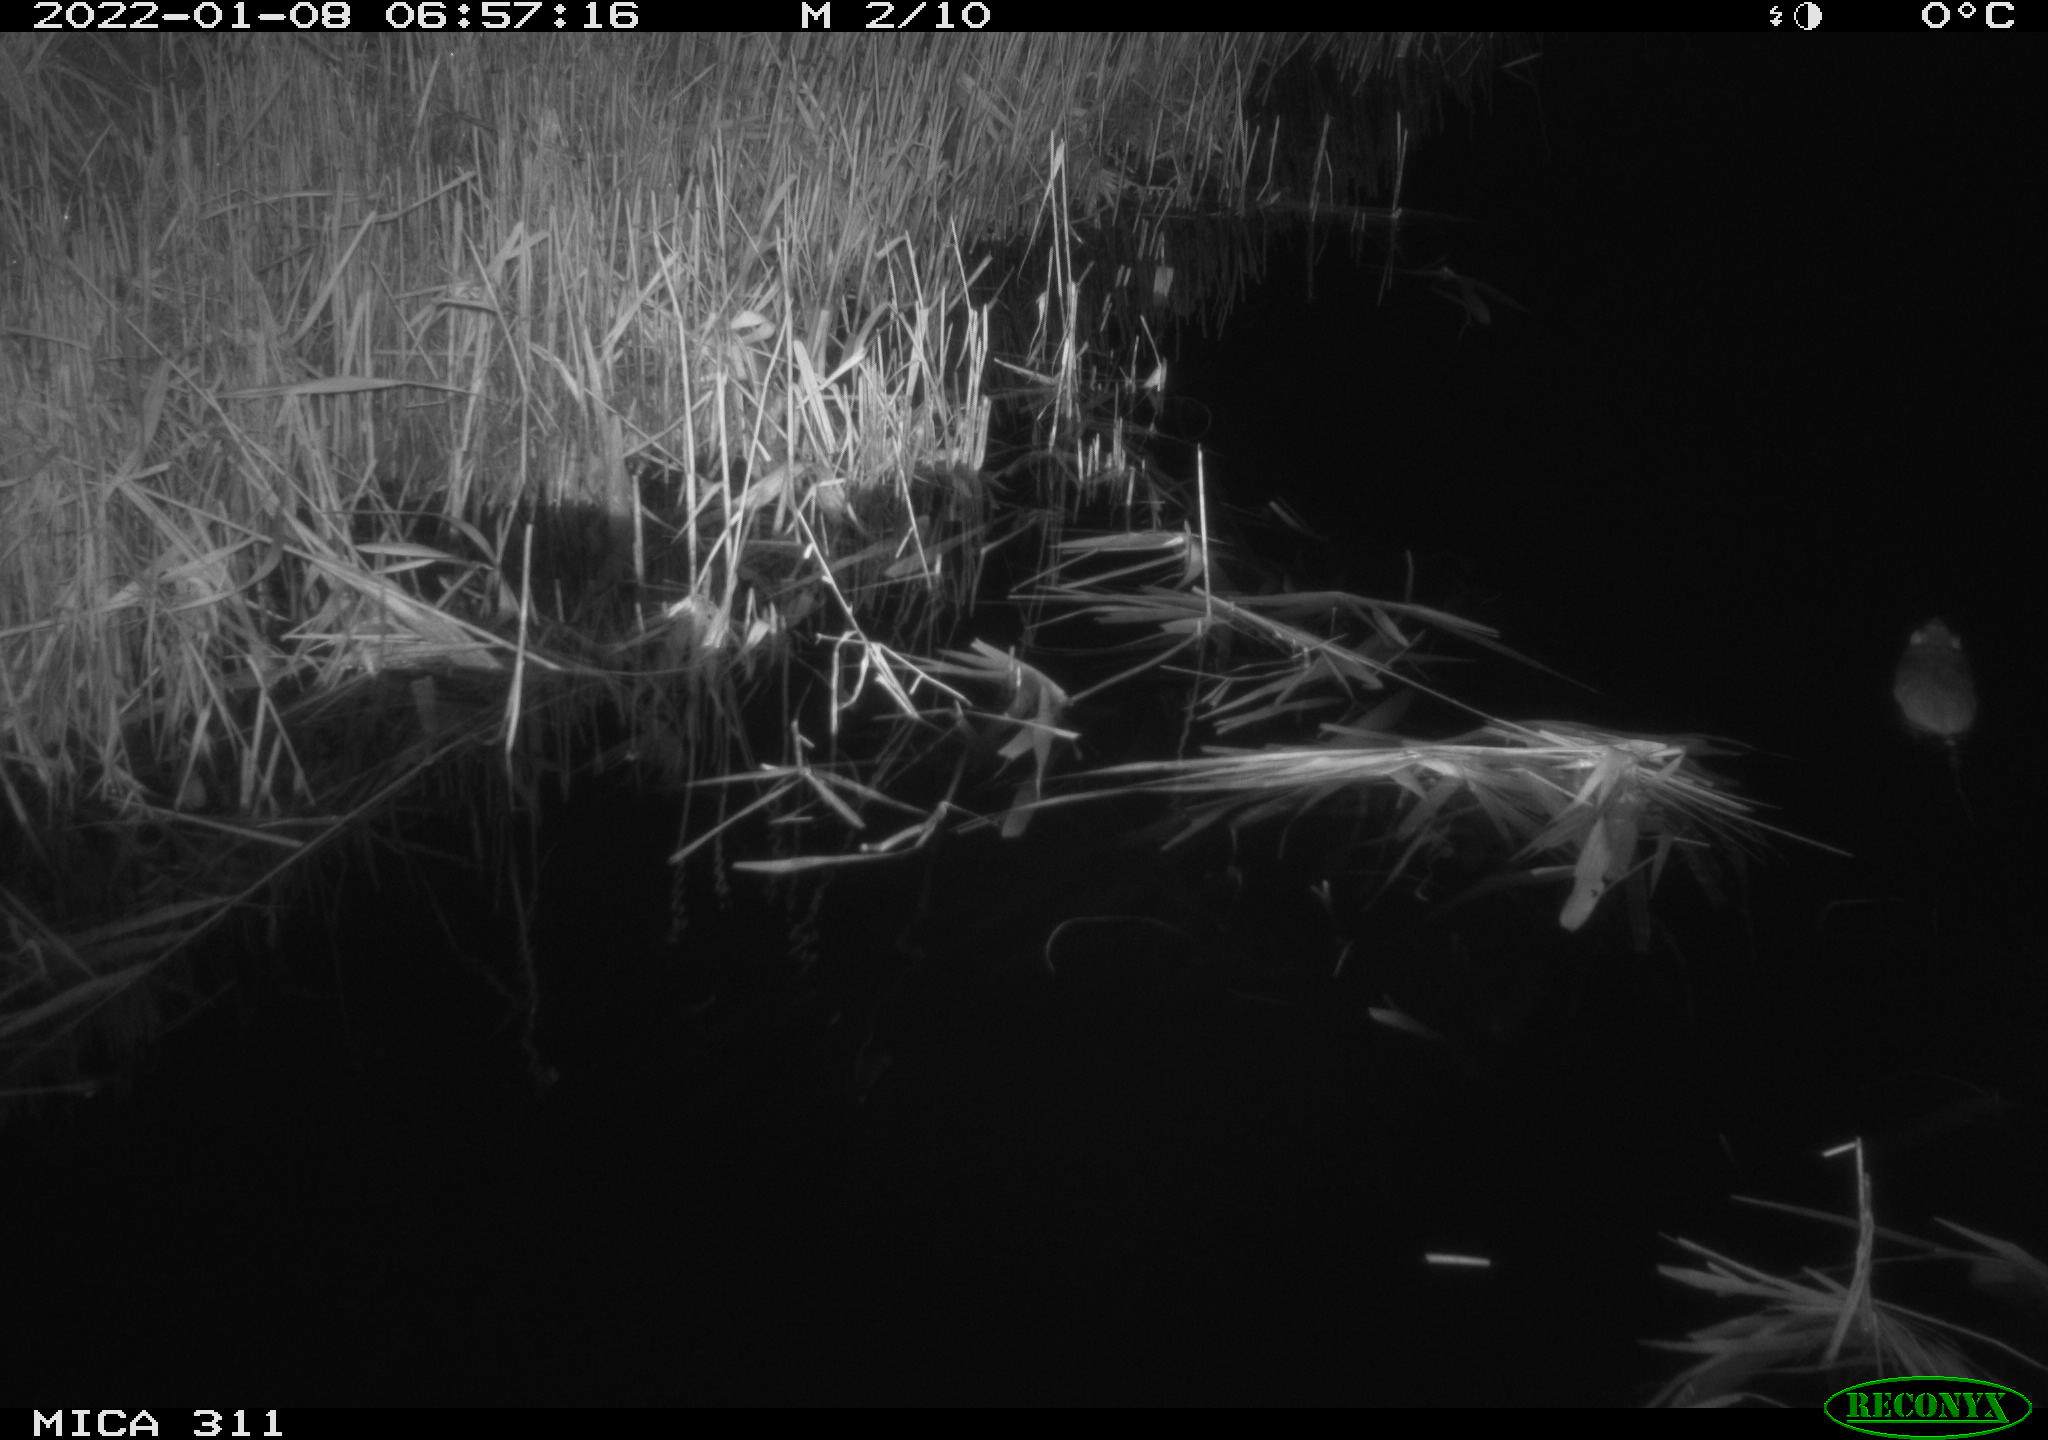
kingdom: Animalia
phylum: Chordata
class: Mammalia
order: Rodentia
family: Muridae
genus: Rattus
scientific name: Rattus norvegicus
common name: Brown rat
